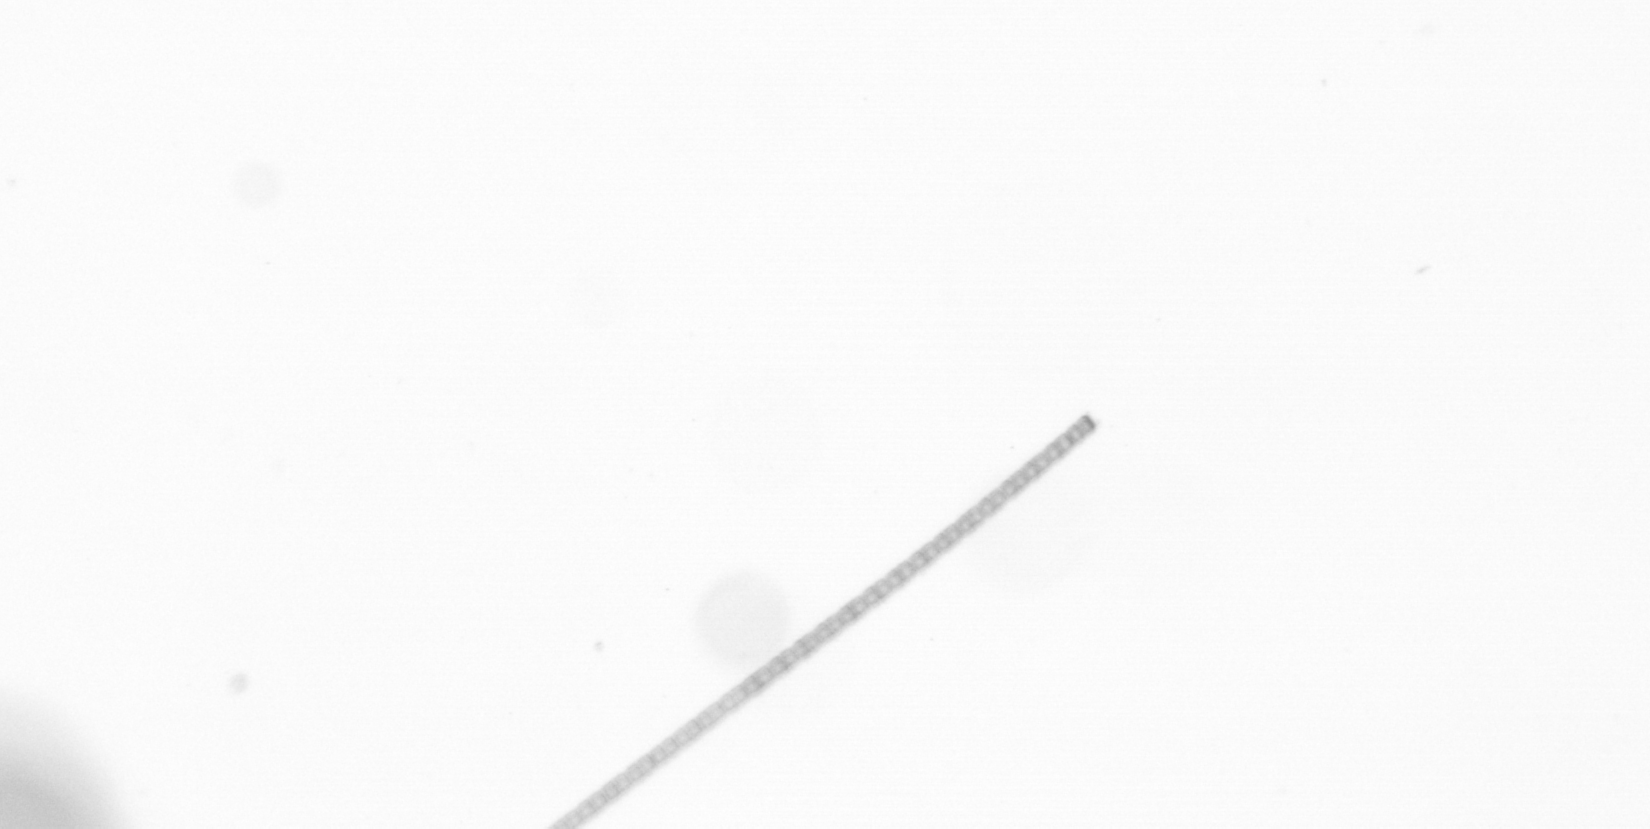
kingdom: Chromista
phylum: Ochrophyta
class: Bacillariophyceae
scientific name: Bacillariophyceae
